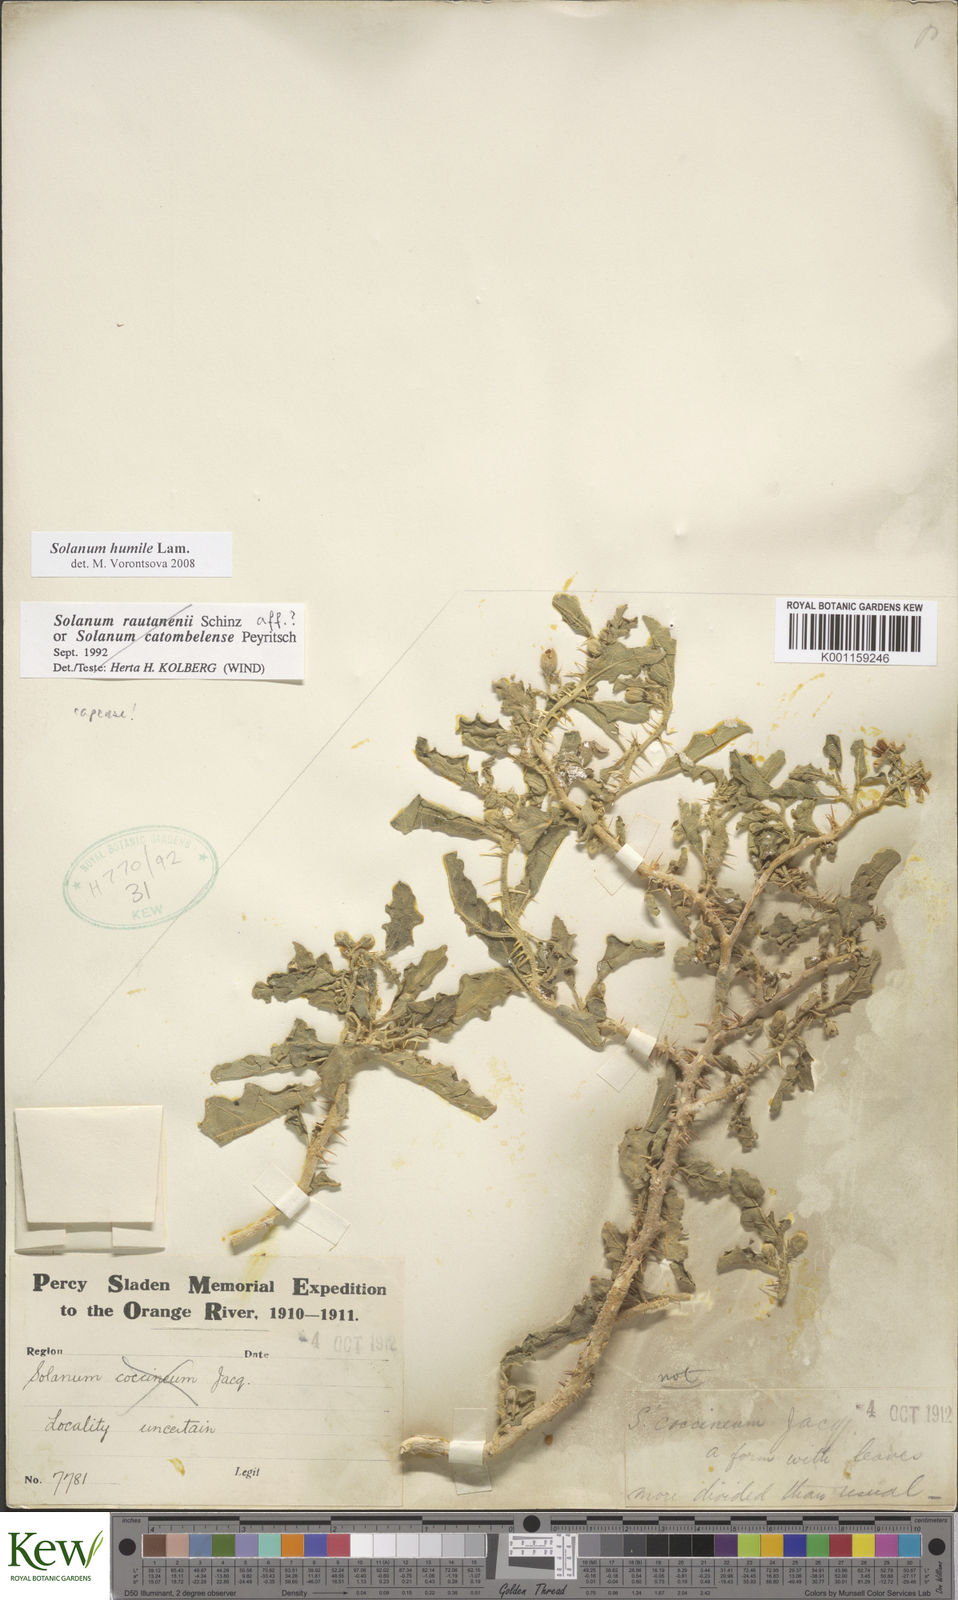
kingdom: Plantae
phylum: Tracheophyta
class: Magnoliopsida
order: Solanales
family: Solanaceae
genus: Solanum
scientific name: Solanum humile
